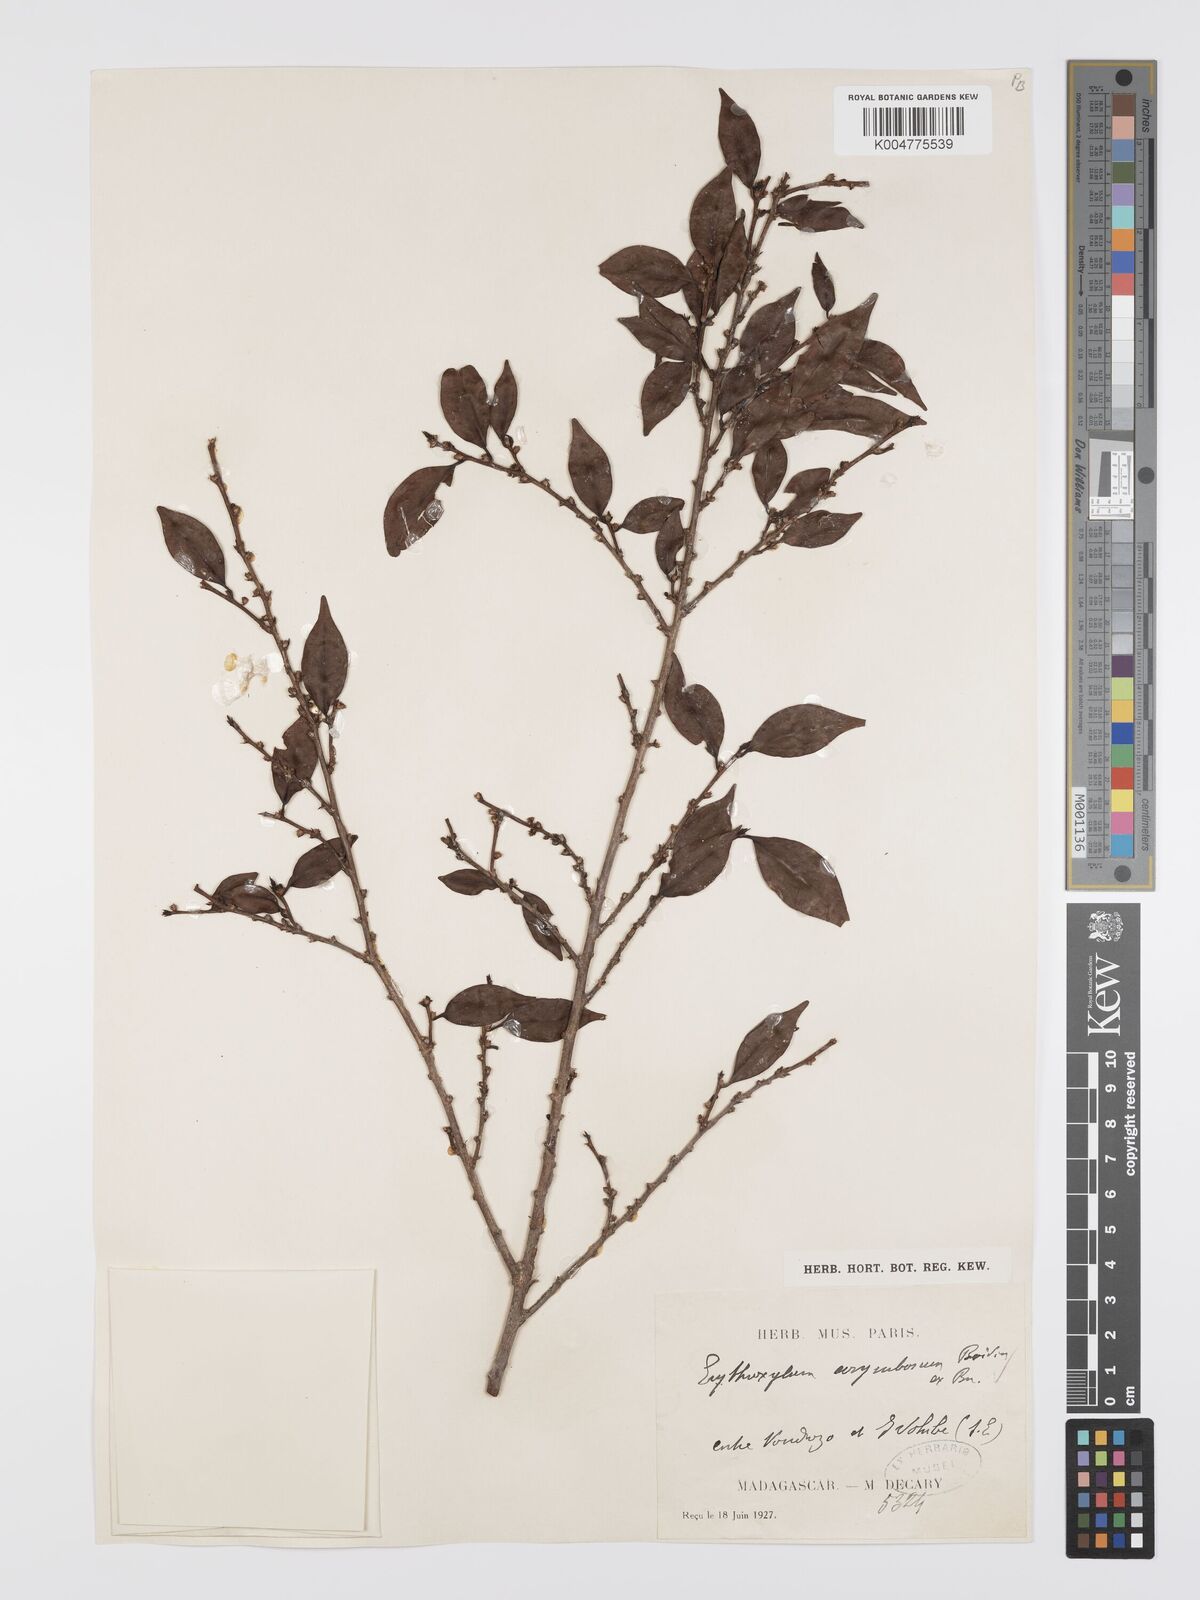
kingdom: Plantae
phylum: Tracheophyta
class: Magnoliopsida
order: Malpighiales
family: Erythroxylaceae
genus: Erythroxylum
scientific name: Erythroxylum corymbosum
